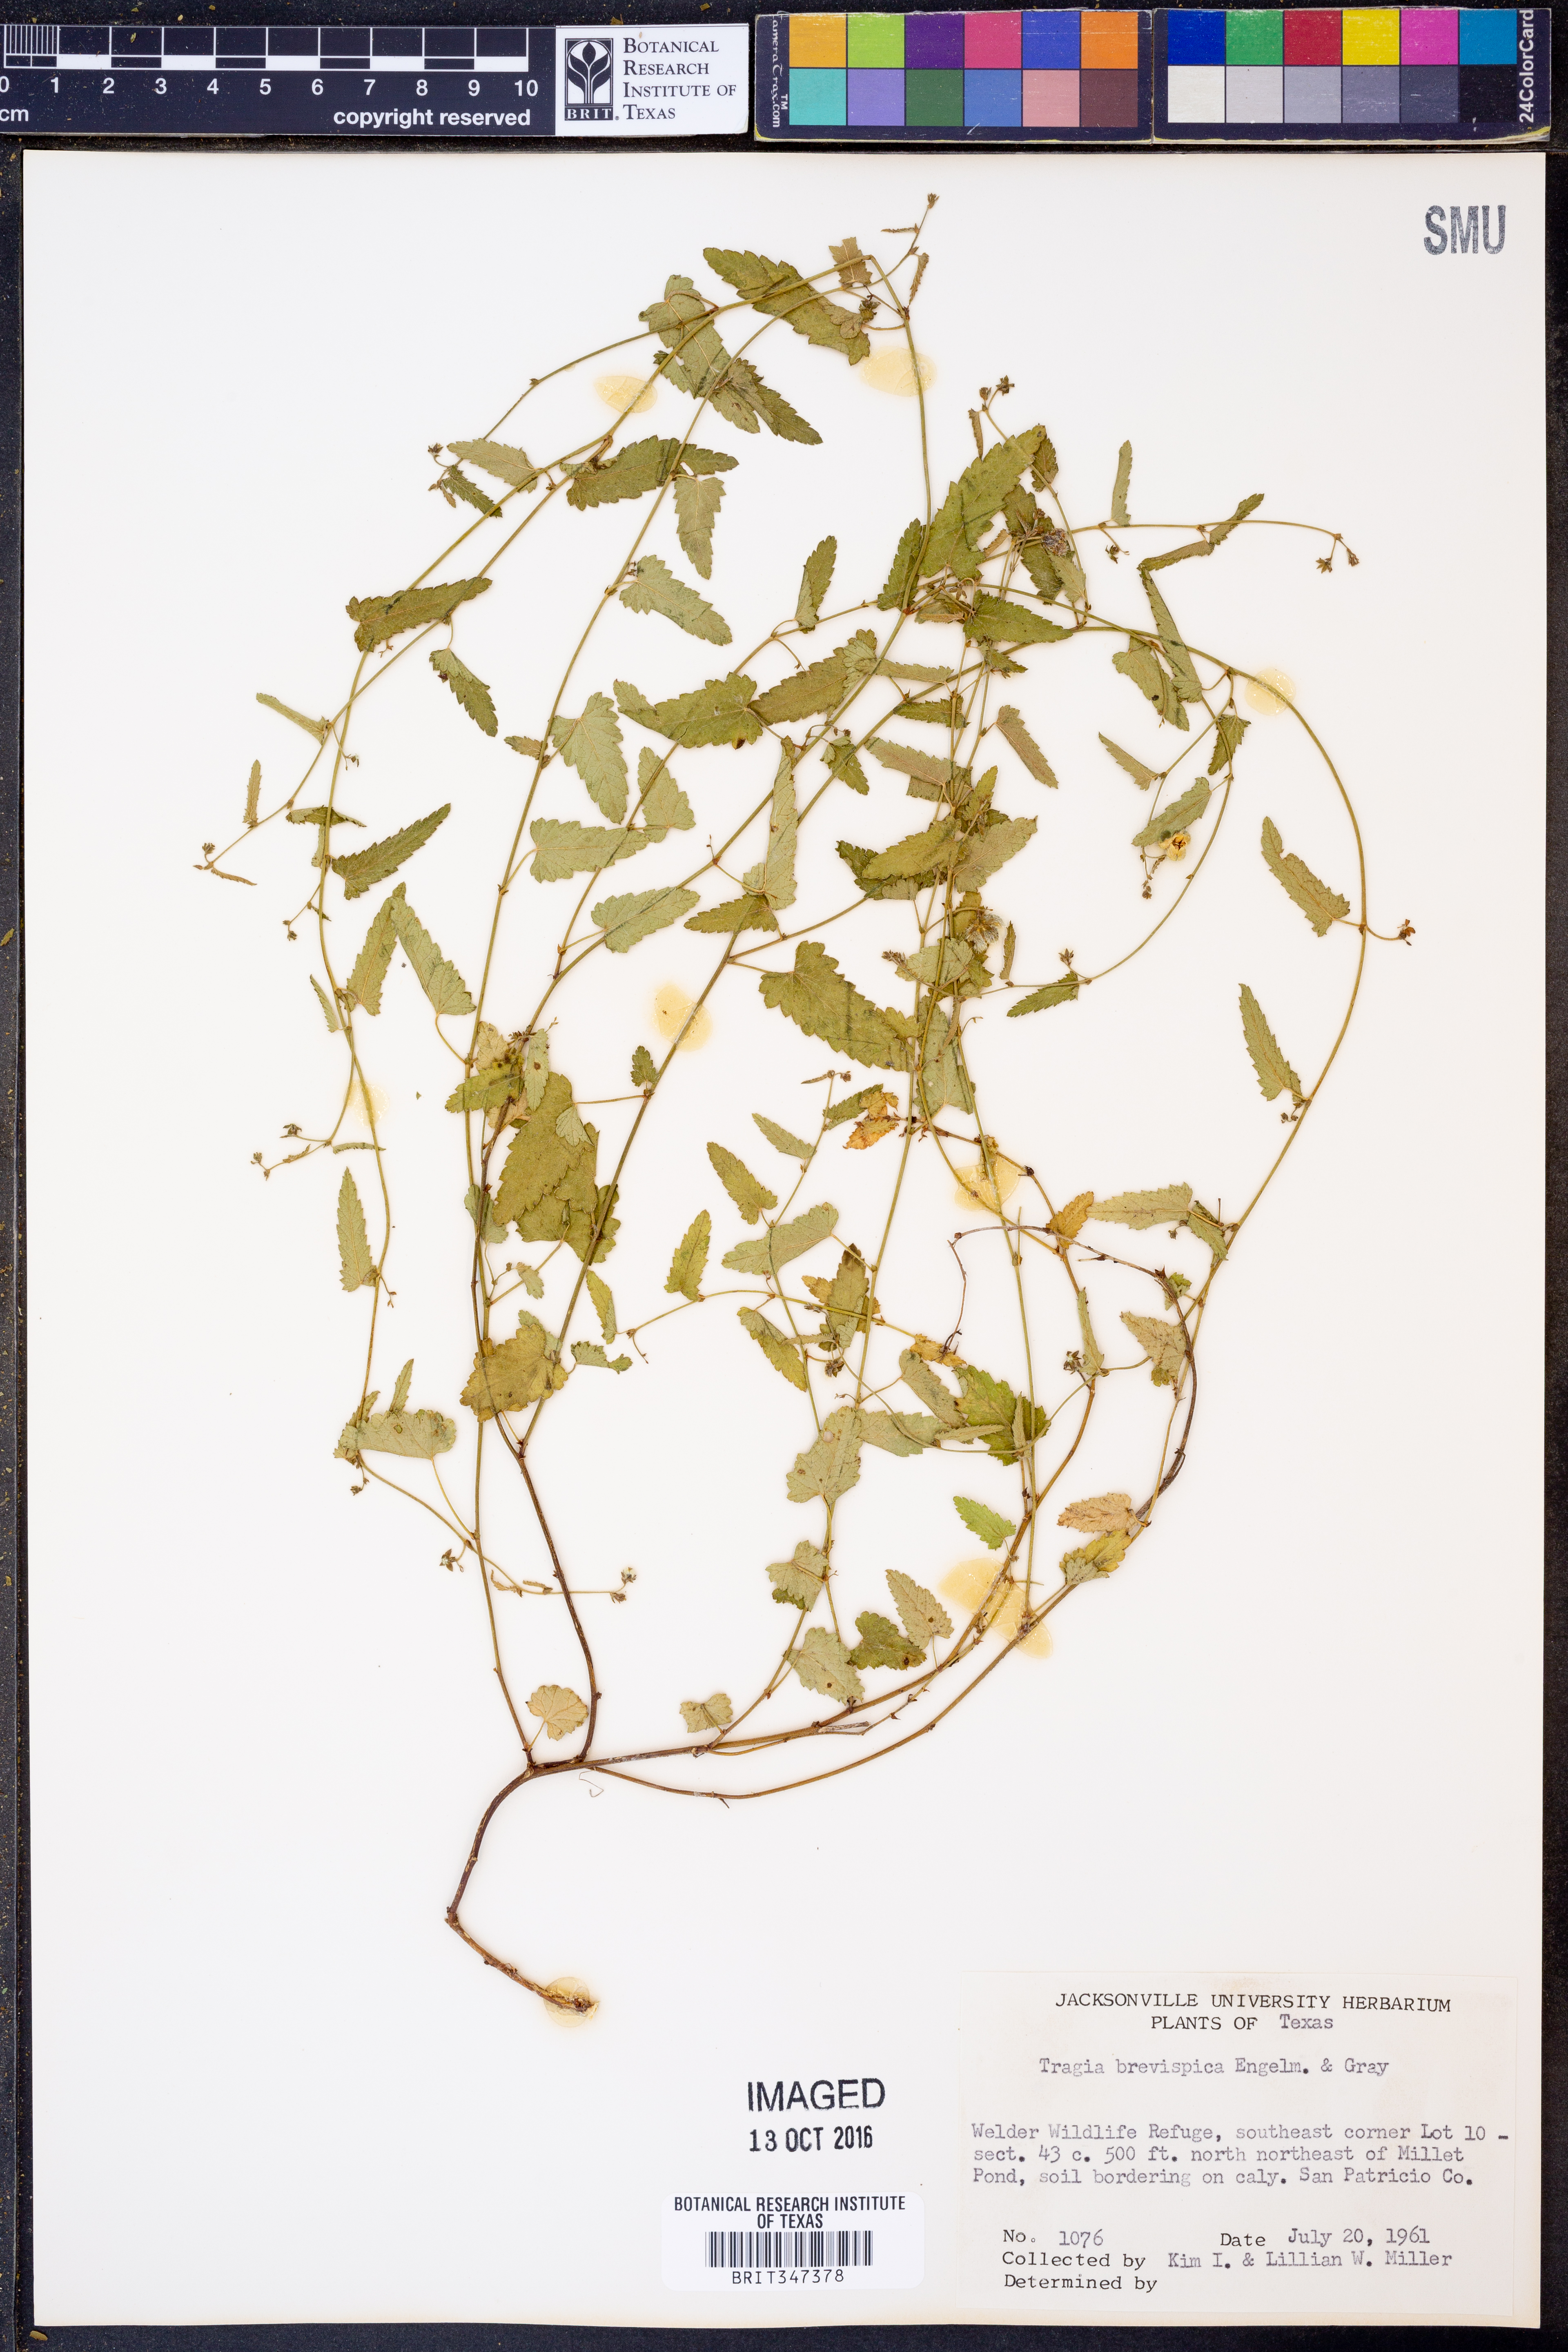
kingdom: Plantae
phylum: Tracheophyta
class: Magnoliopsida
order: Malpighiales
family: Euphorbiaceae
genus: Tragia
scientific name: Tragia brevispica
